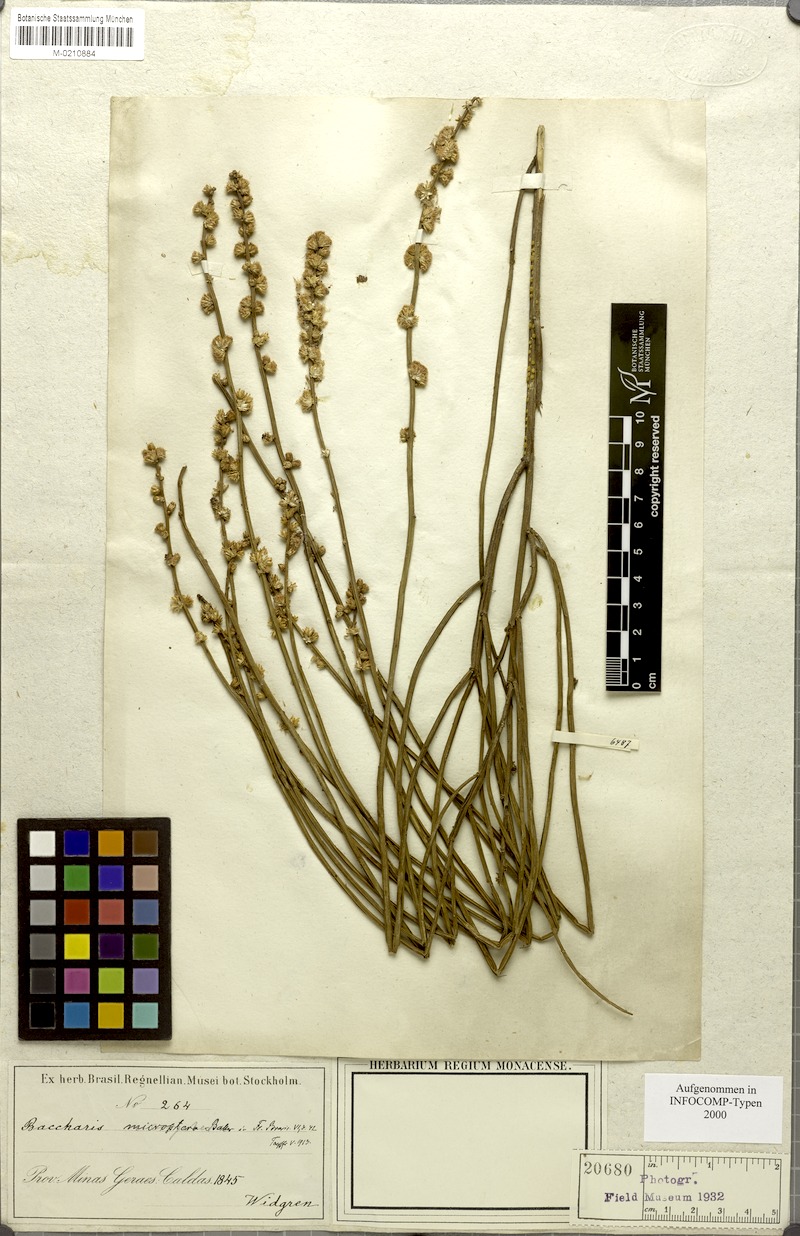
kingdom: Plantae
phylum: Tracheophyta
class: Magnoliopsida
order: Asterales
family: Asteraceae
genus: Baccharis
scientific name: Baccharis microcephala
